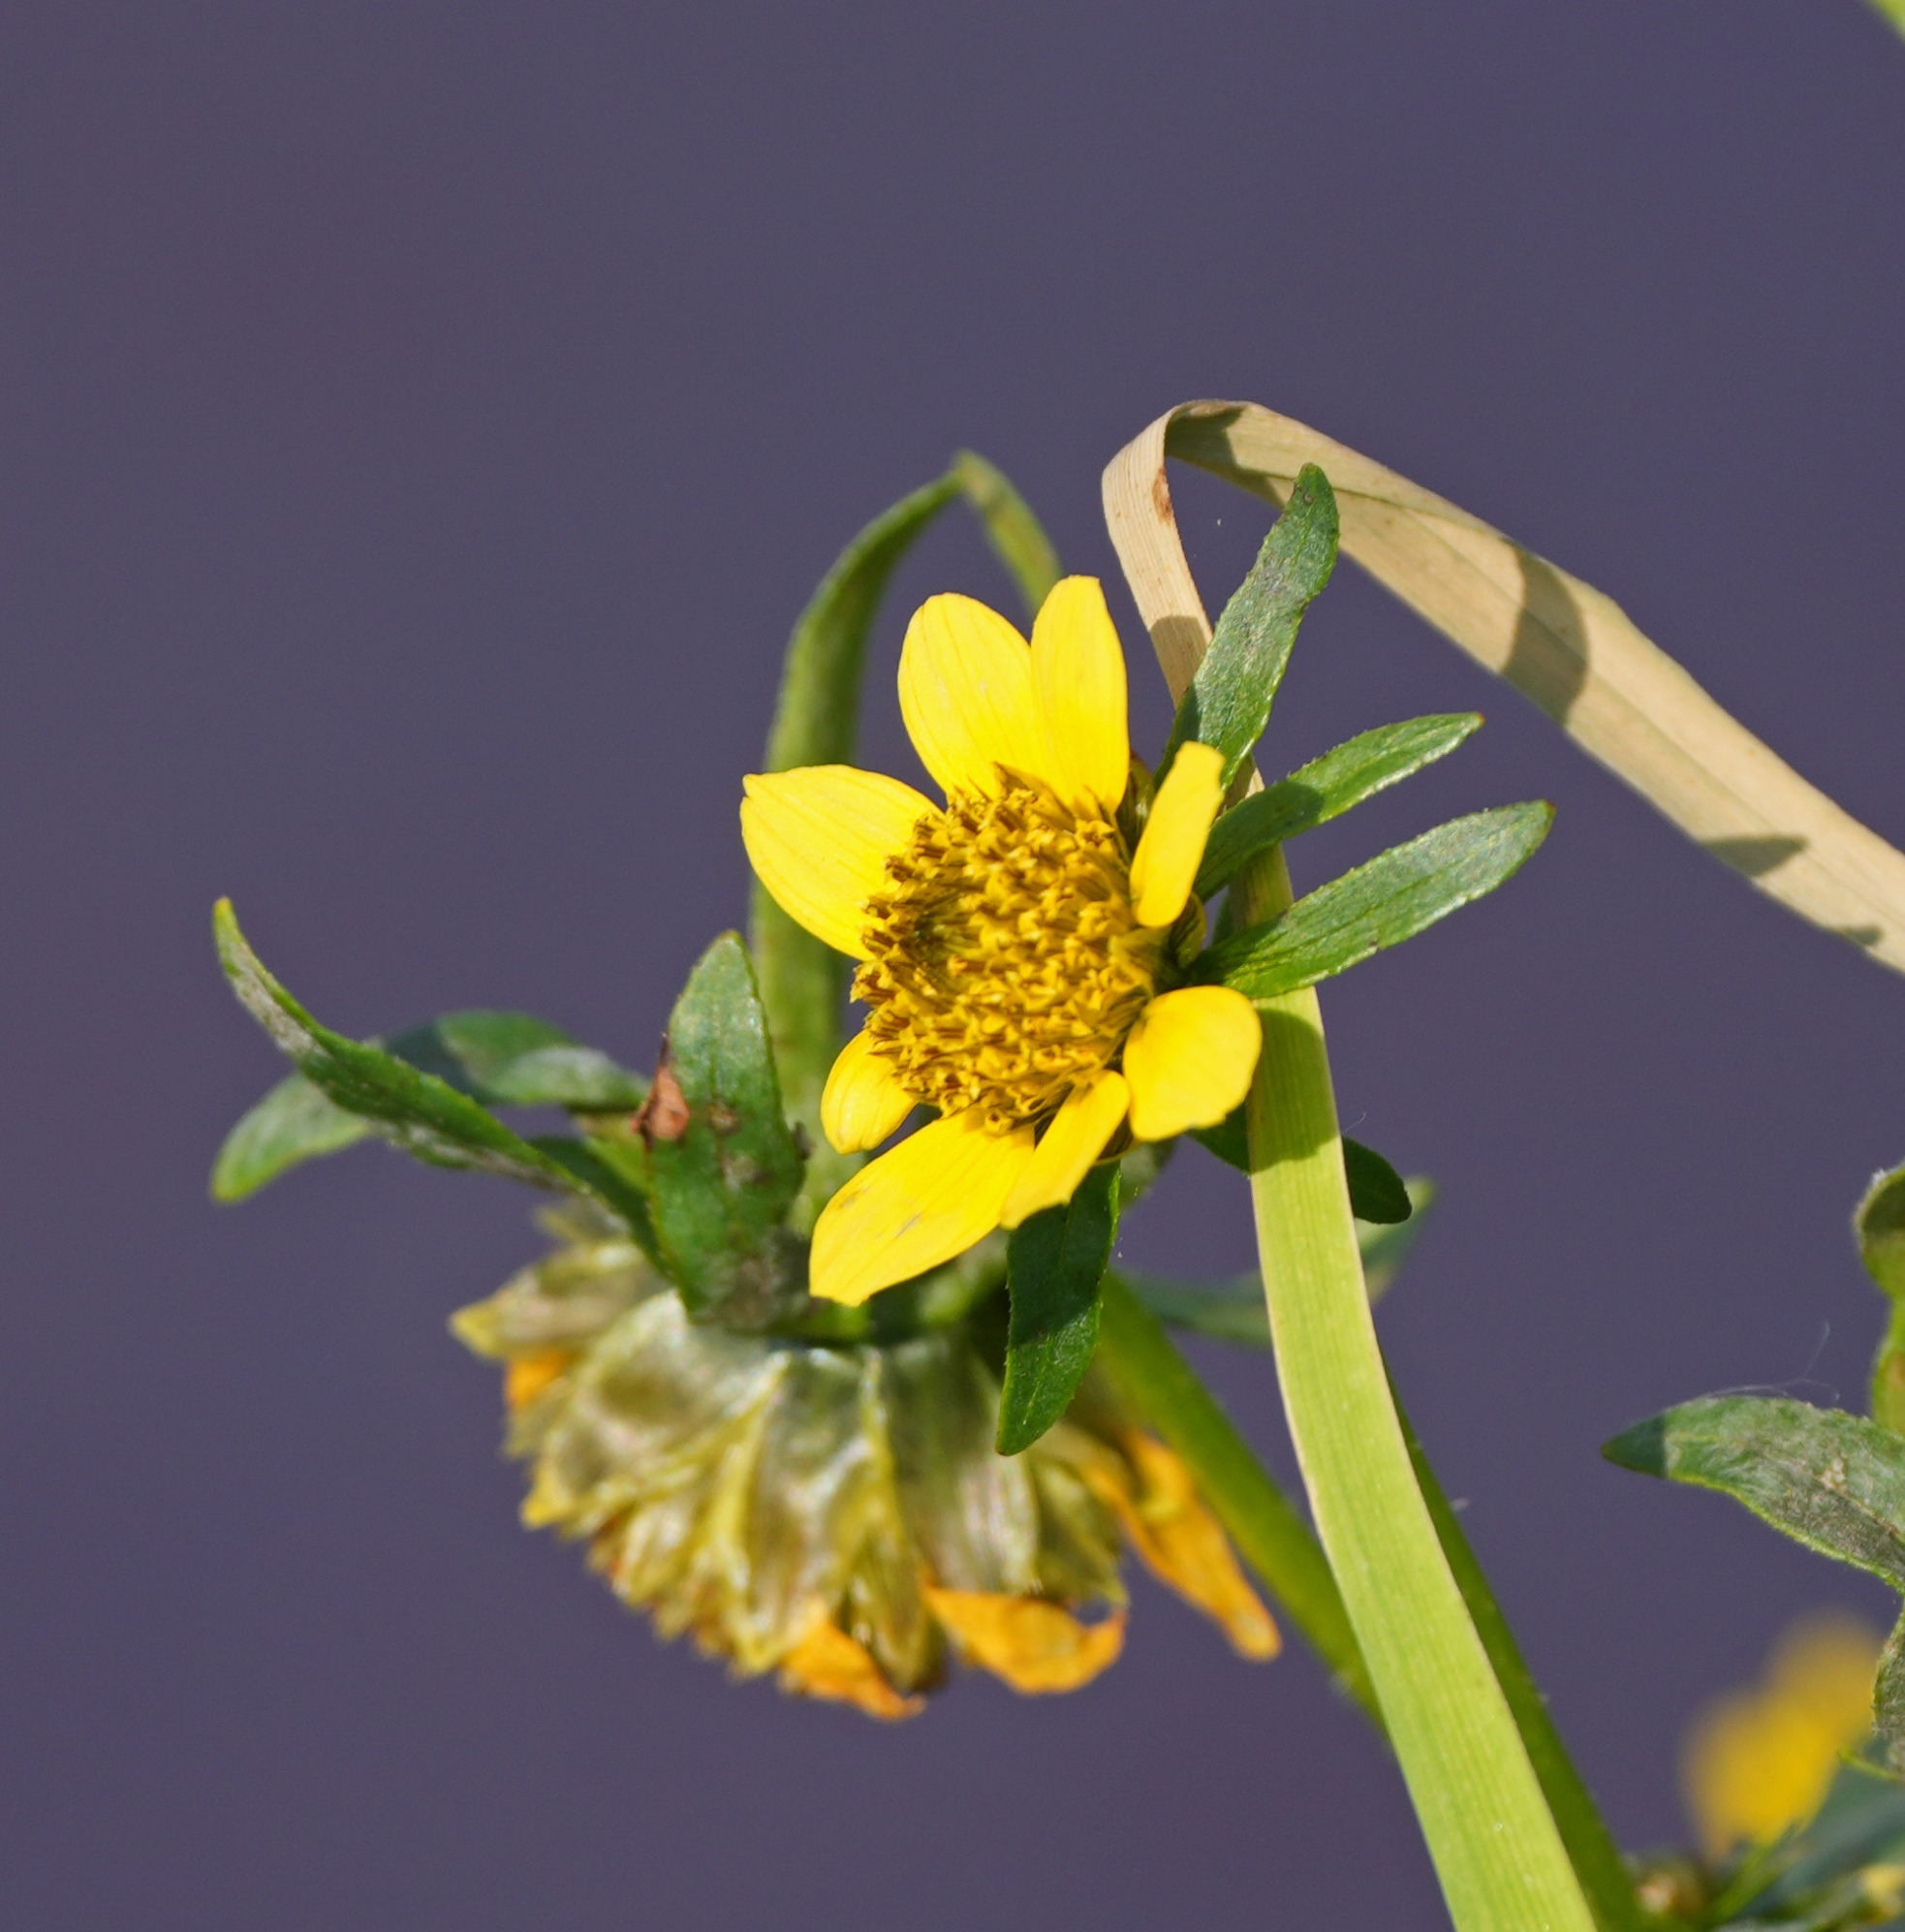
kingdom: Plantae
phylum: Tracheophyta
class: Magnoliopsida
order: Asterales
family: Asteraceae
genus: Bidens
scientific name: Bidens cernua
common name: Nikkende brøndsel
